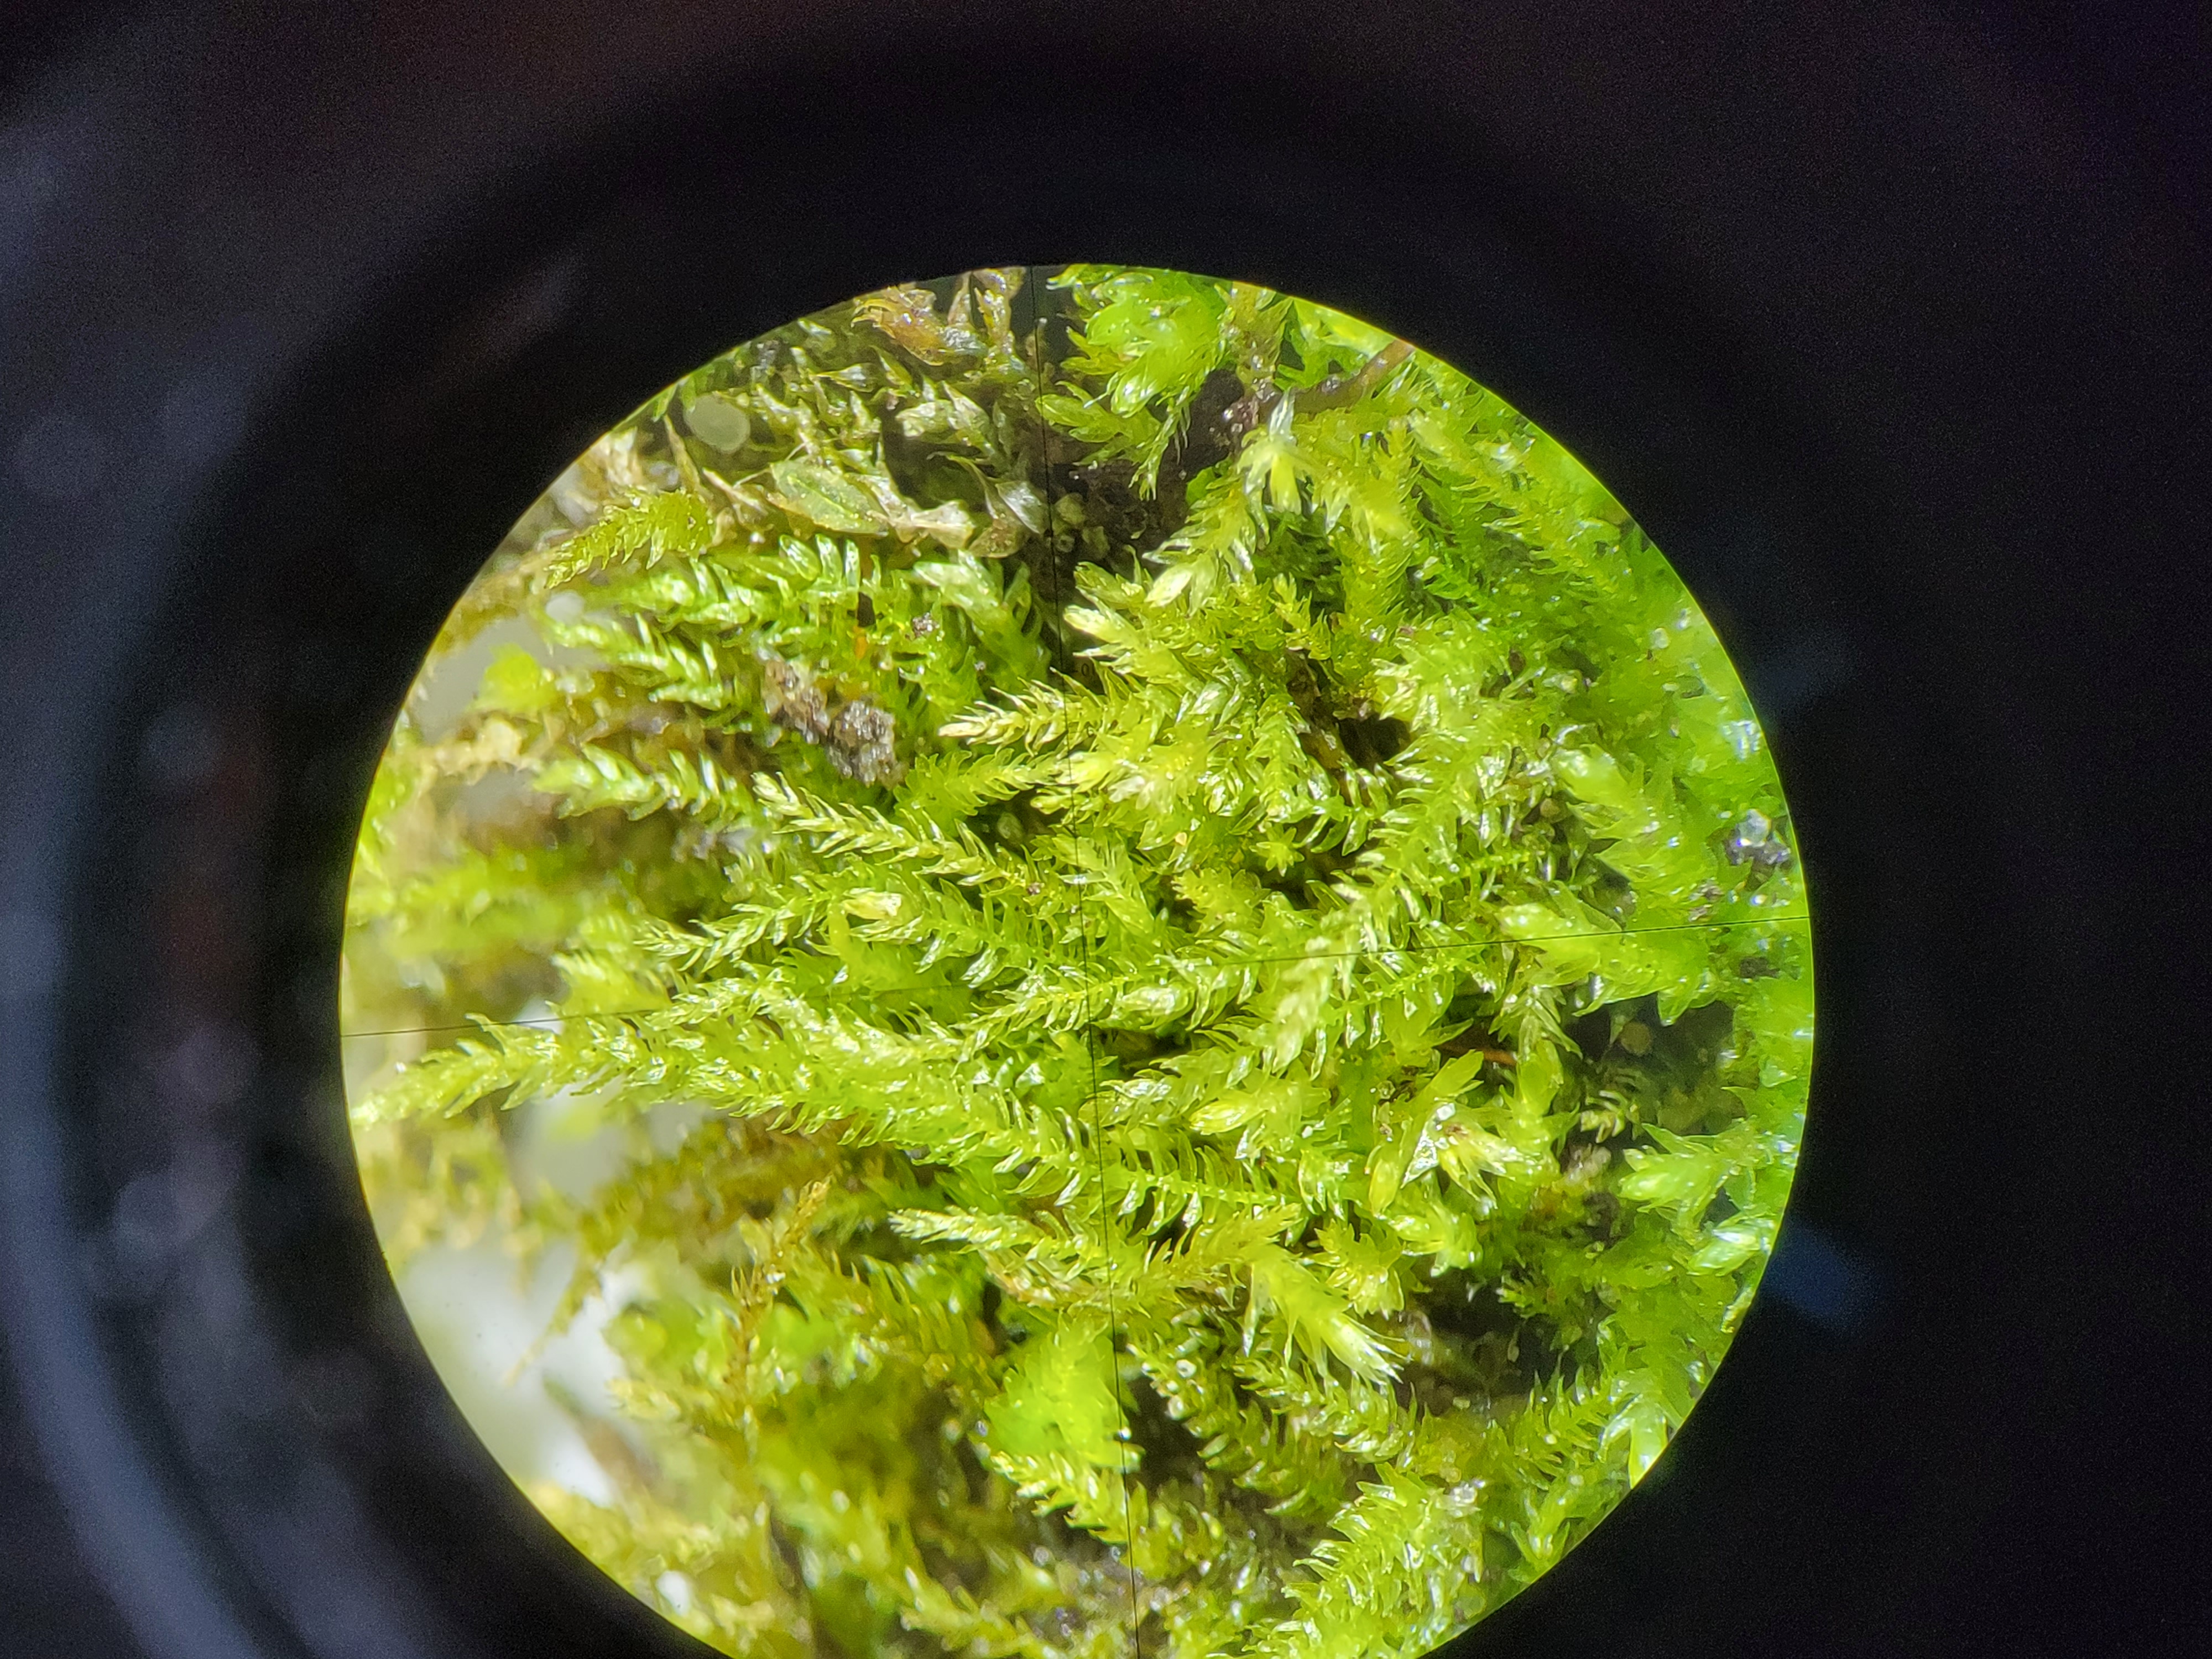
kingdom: Plantae
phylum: Bryophyta
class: Bryopsida
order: Hypnales
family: Brachytheciaceae
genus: Eurhynchiastrum
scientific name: Eurhynchiastrum pulchellum
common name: Fin næbmos
